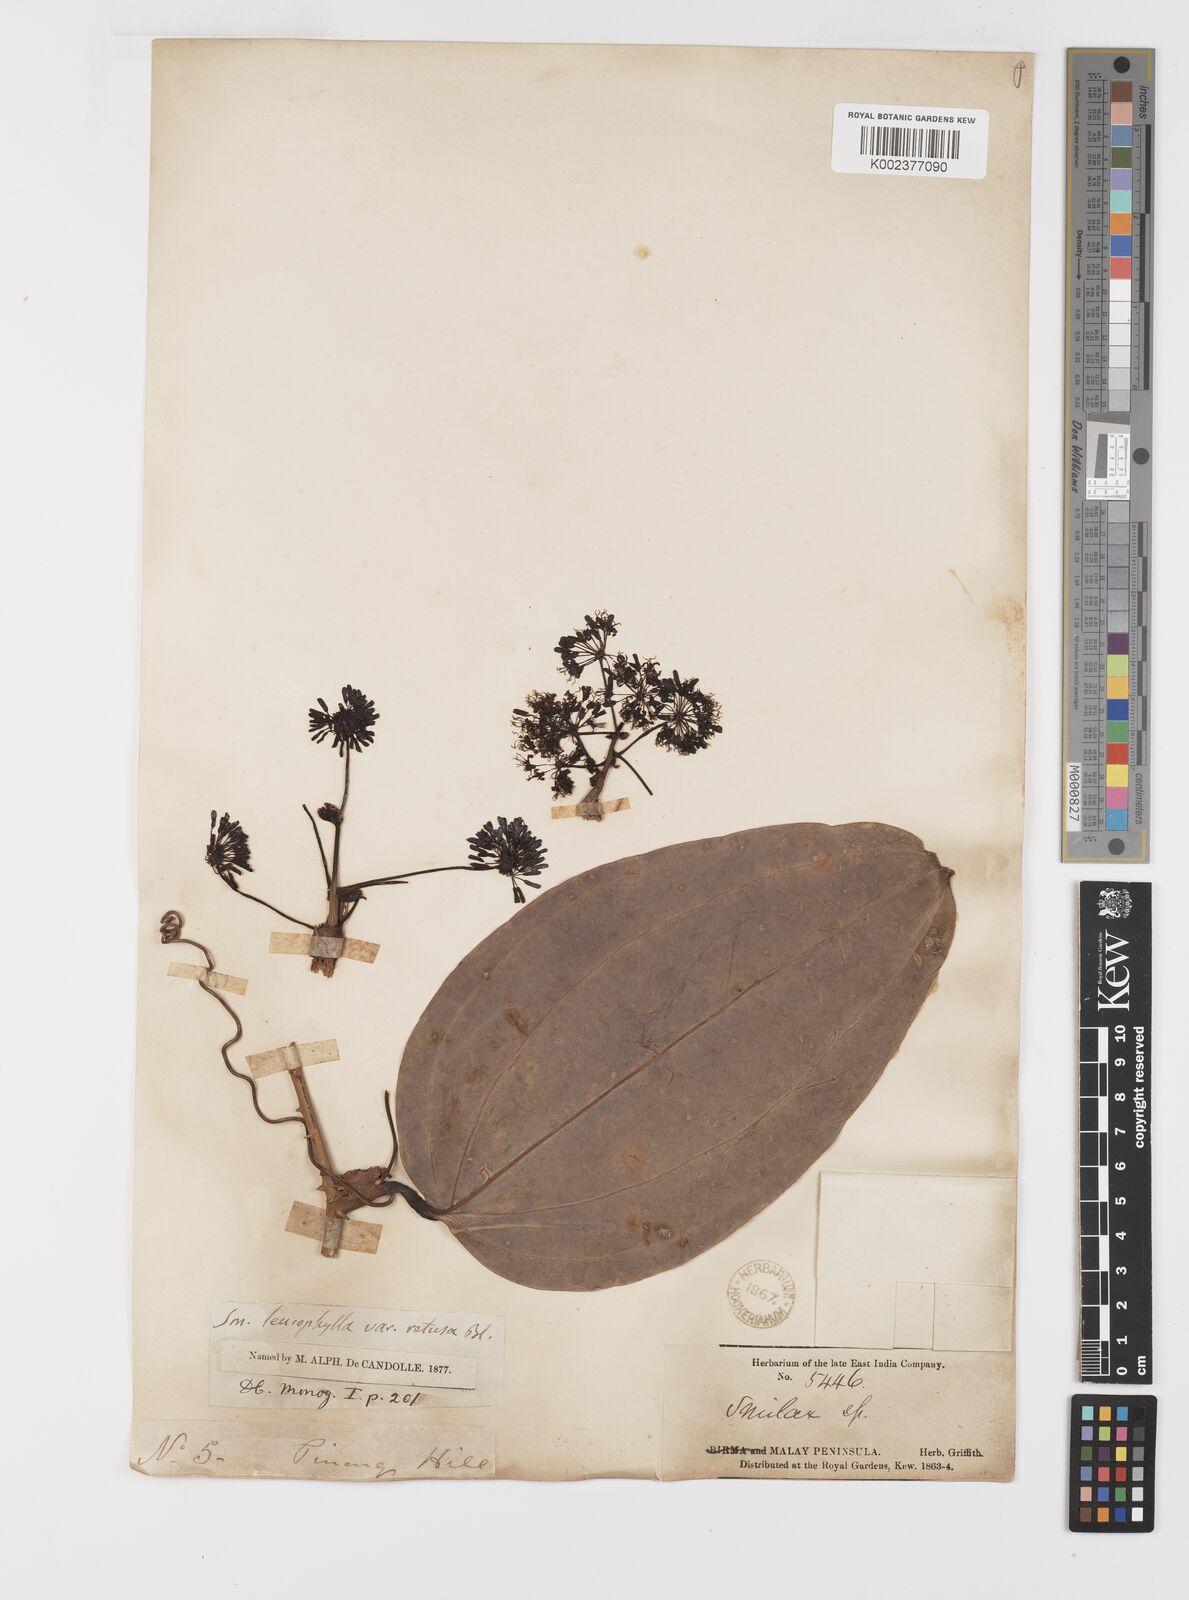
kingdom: Plantae
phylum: Tracheophyta
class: Liliopsida
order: Liliales
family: Smilacaceae
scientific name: Smilacaceae
